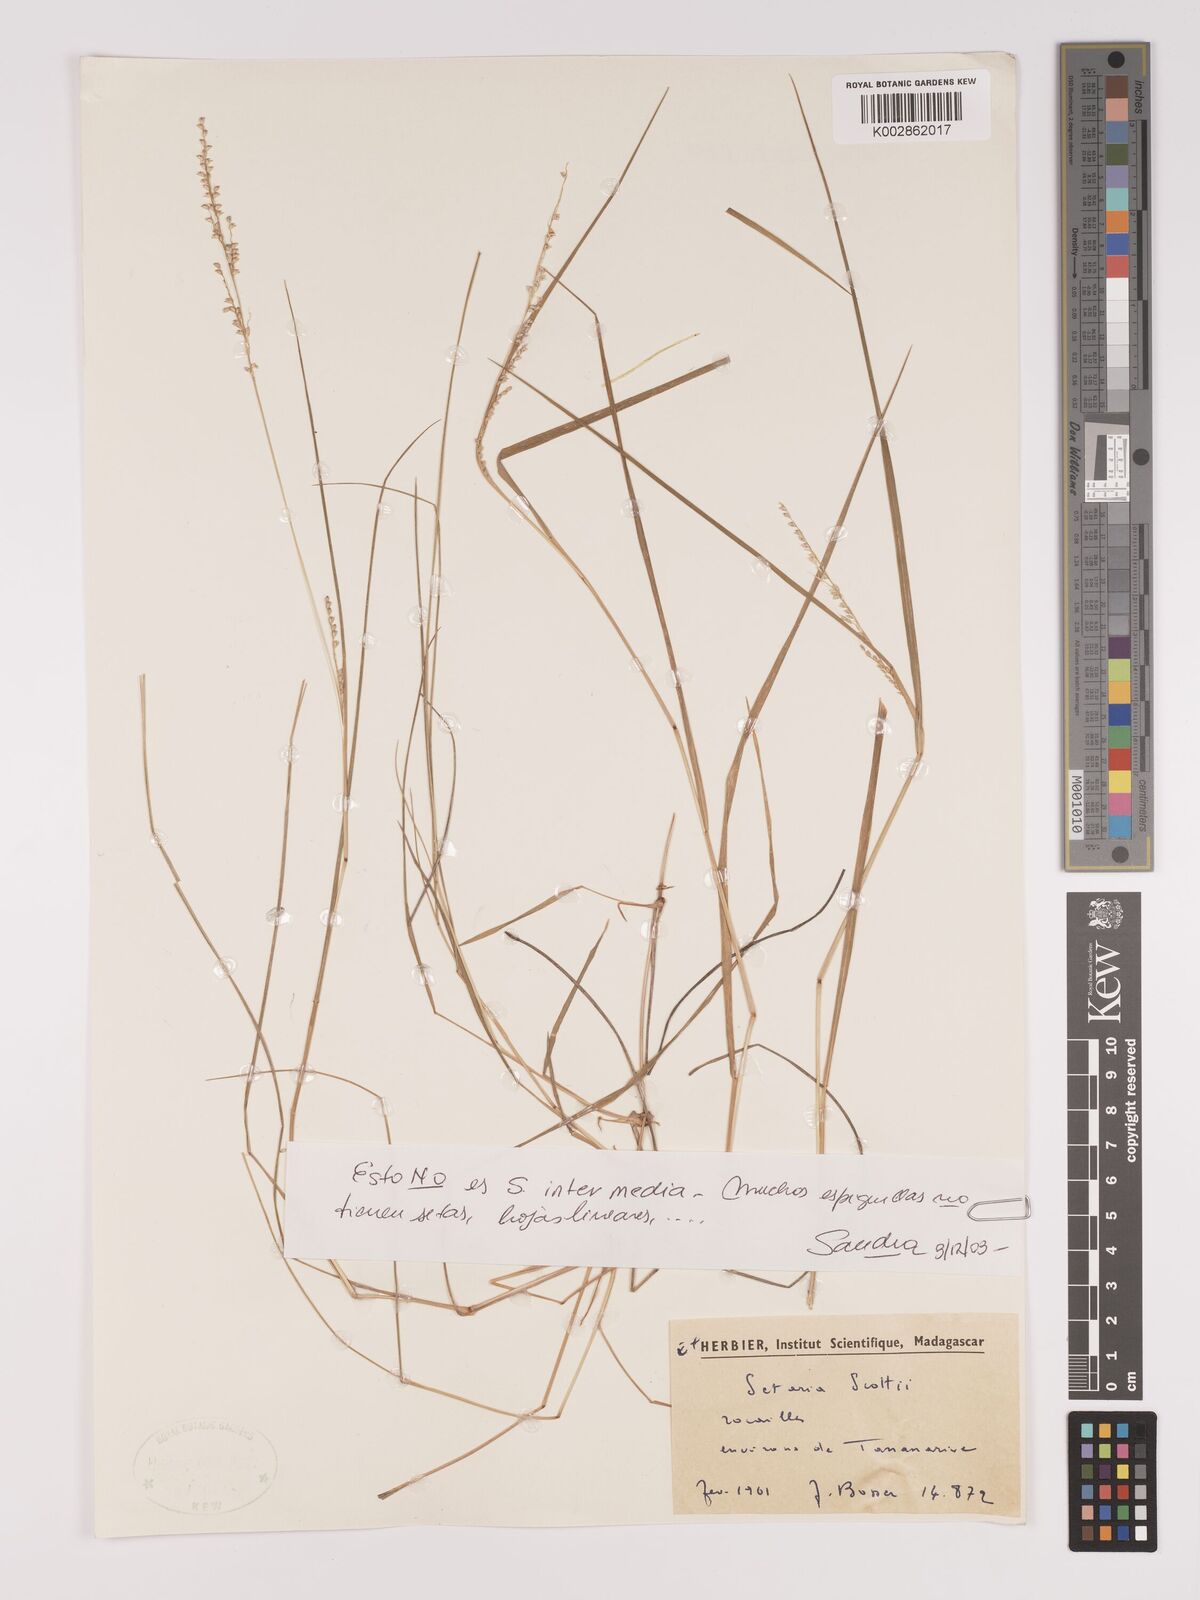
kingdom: Plantae
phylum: Tracheophyta
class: Liliopsida
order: Poales
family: Poaceae
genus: Setaria
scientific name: Setaria scottii
